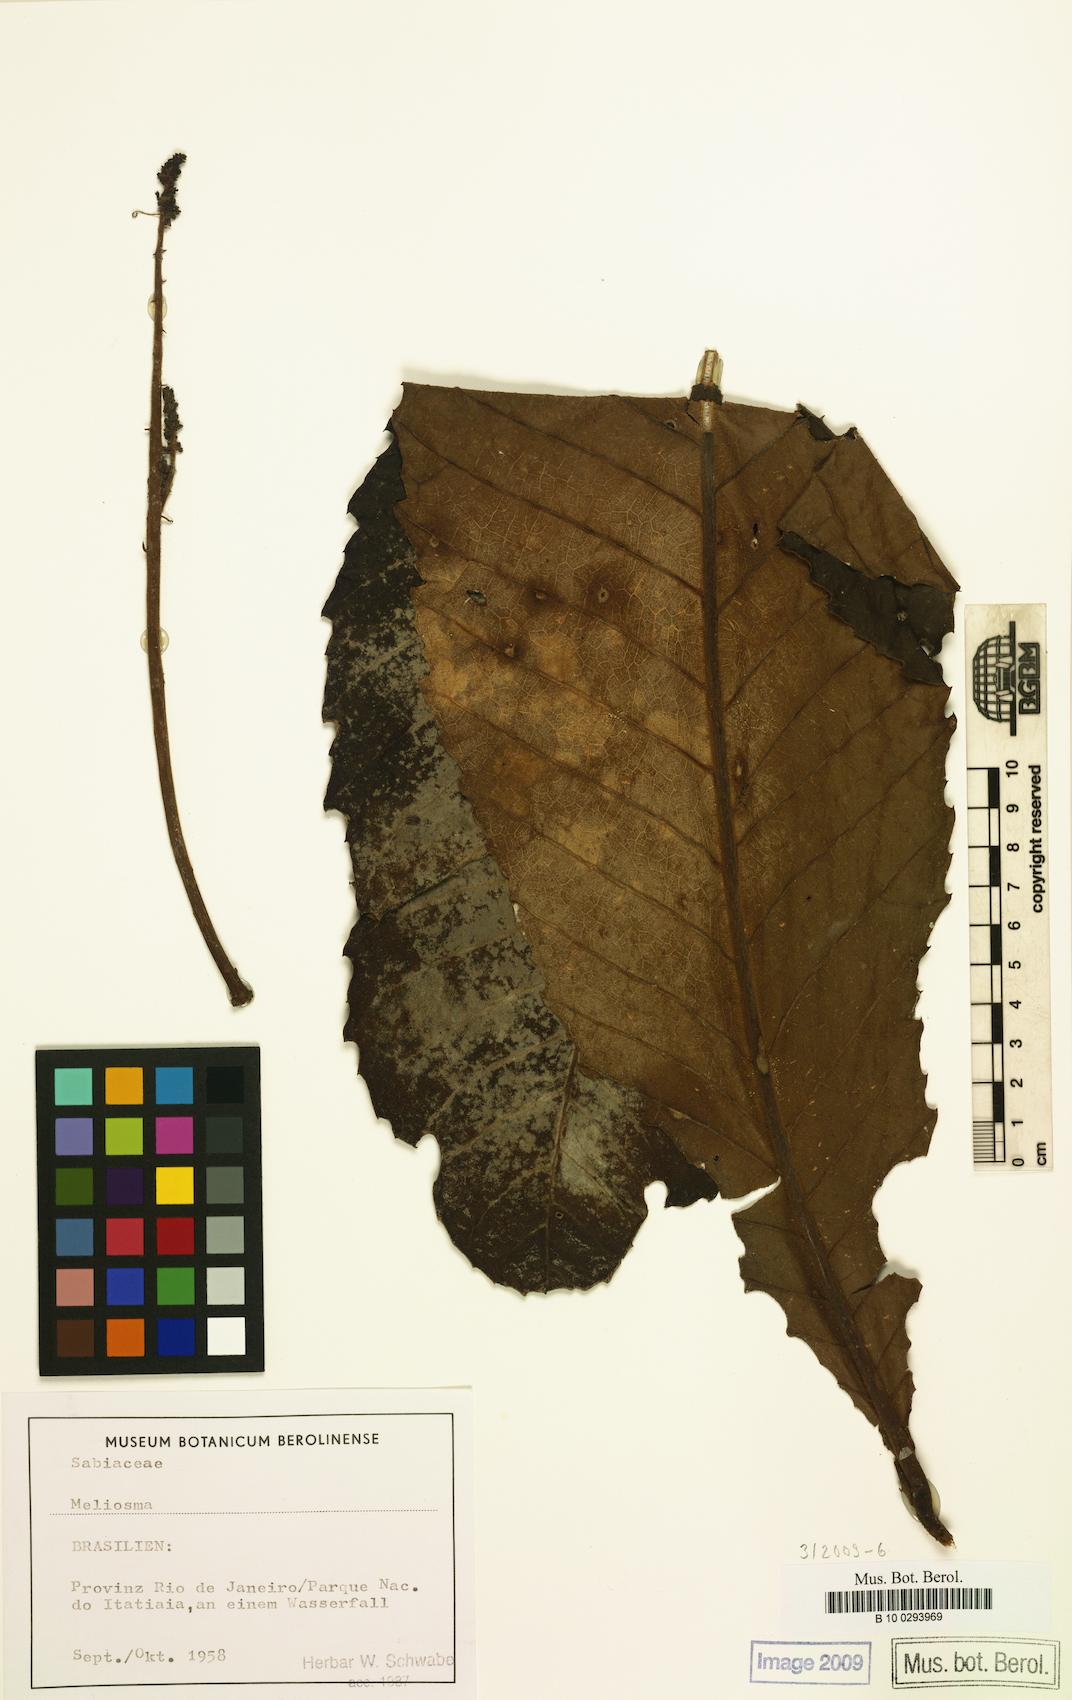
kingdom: Plantae
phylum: Tracheophyta
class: Magnoliopsida
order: Proteales
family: Sabiaceae
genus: Meliosma
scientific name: Meliosma
